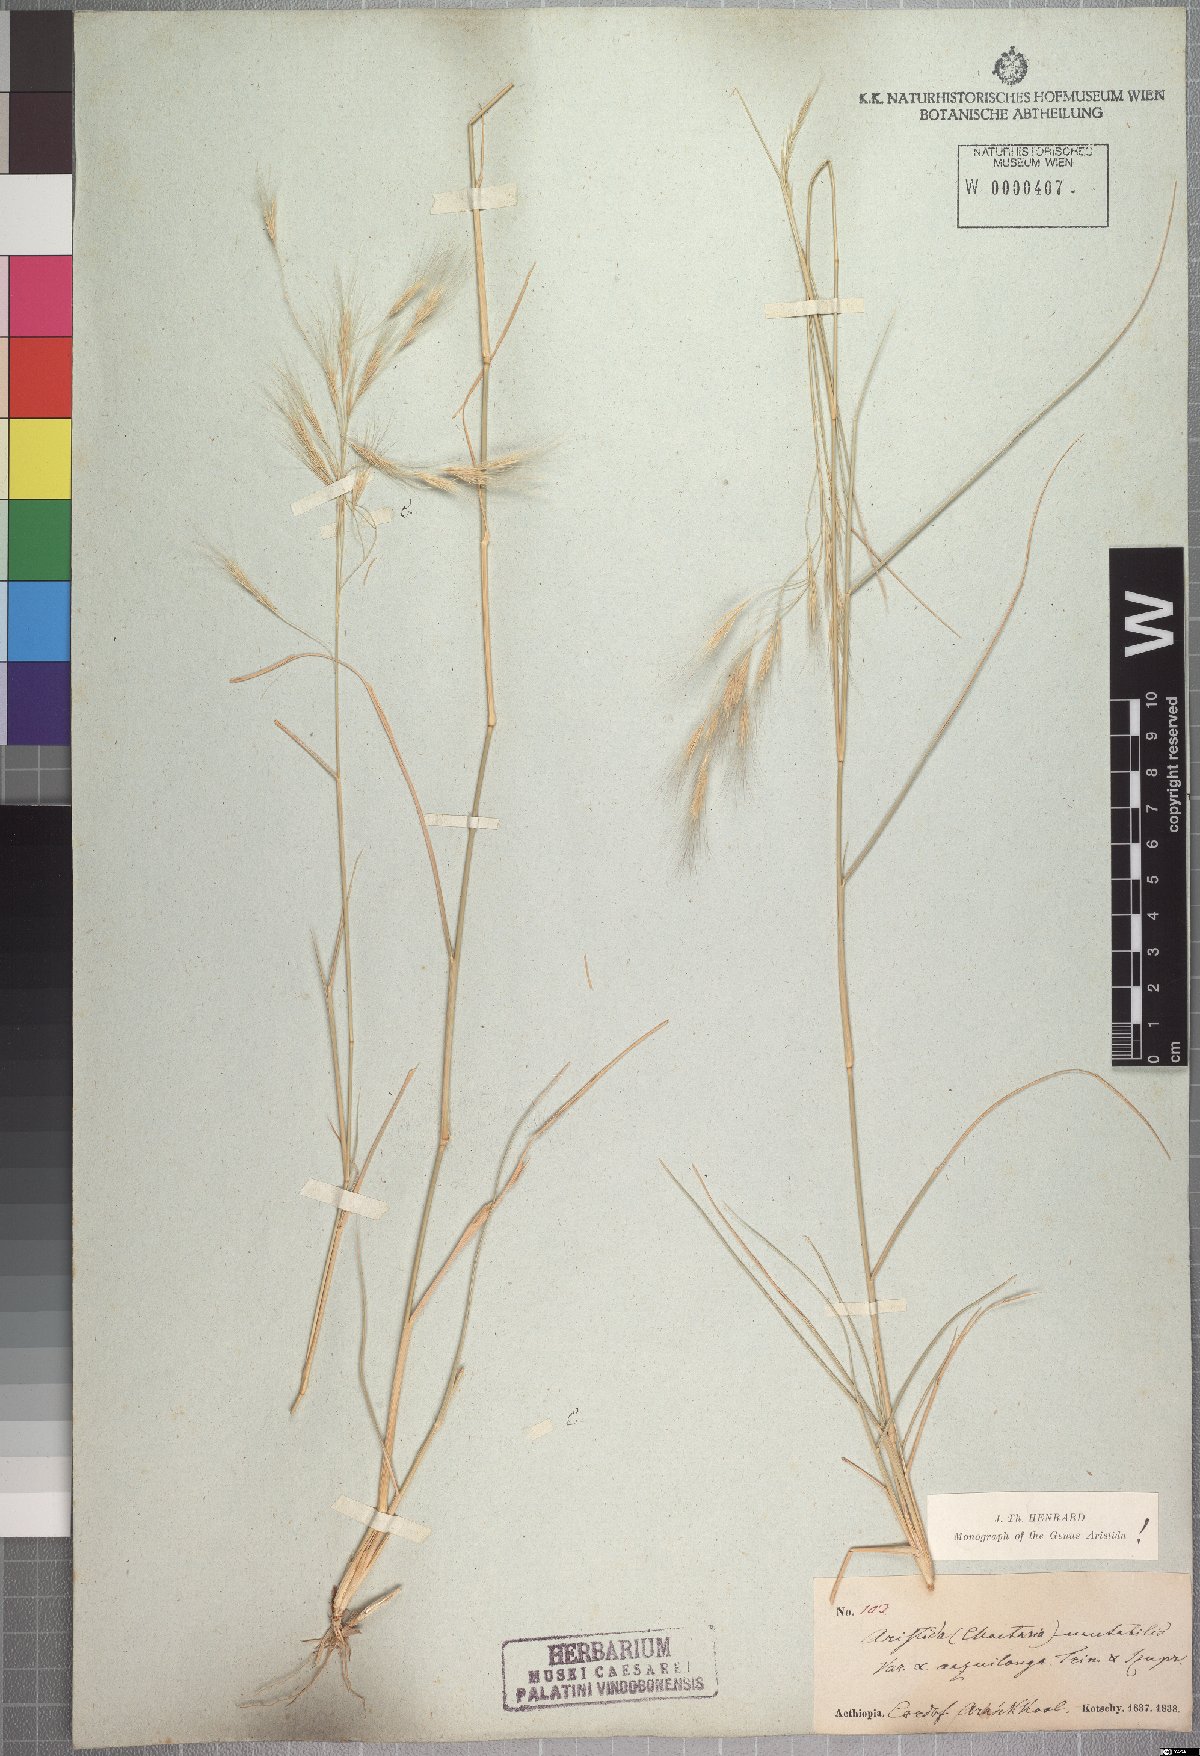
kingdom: Plantae
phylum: Tracheophyta
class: Liliopsida
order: Poales
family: Poaceae
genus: Aristida
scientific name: Aristida mutabilis
